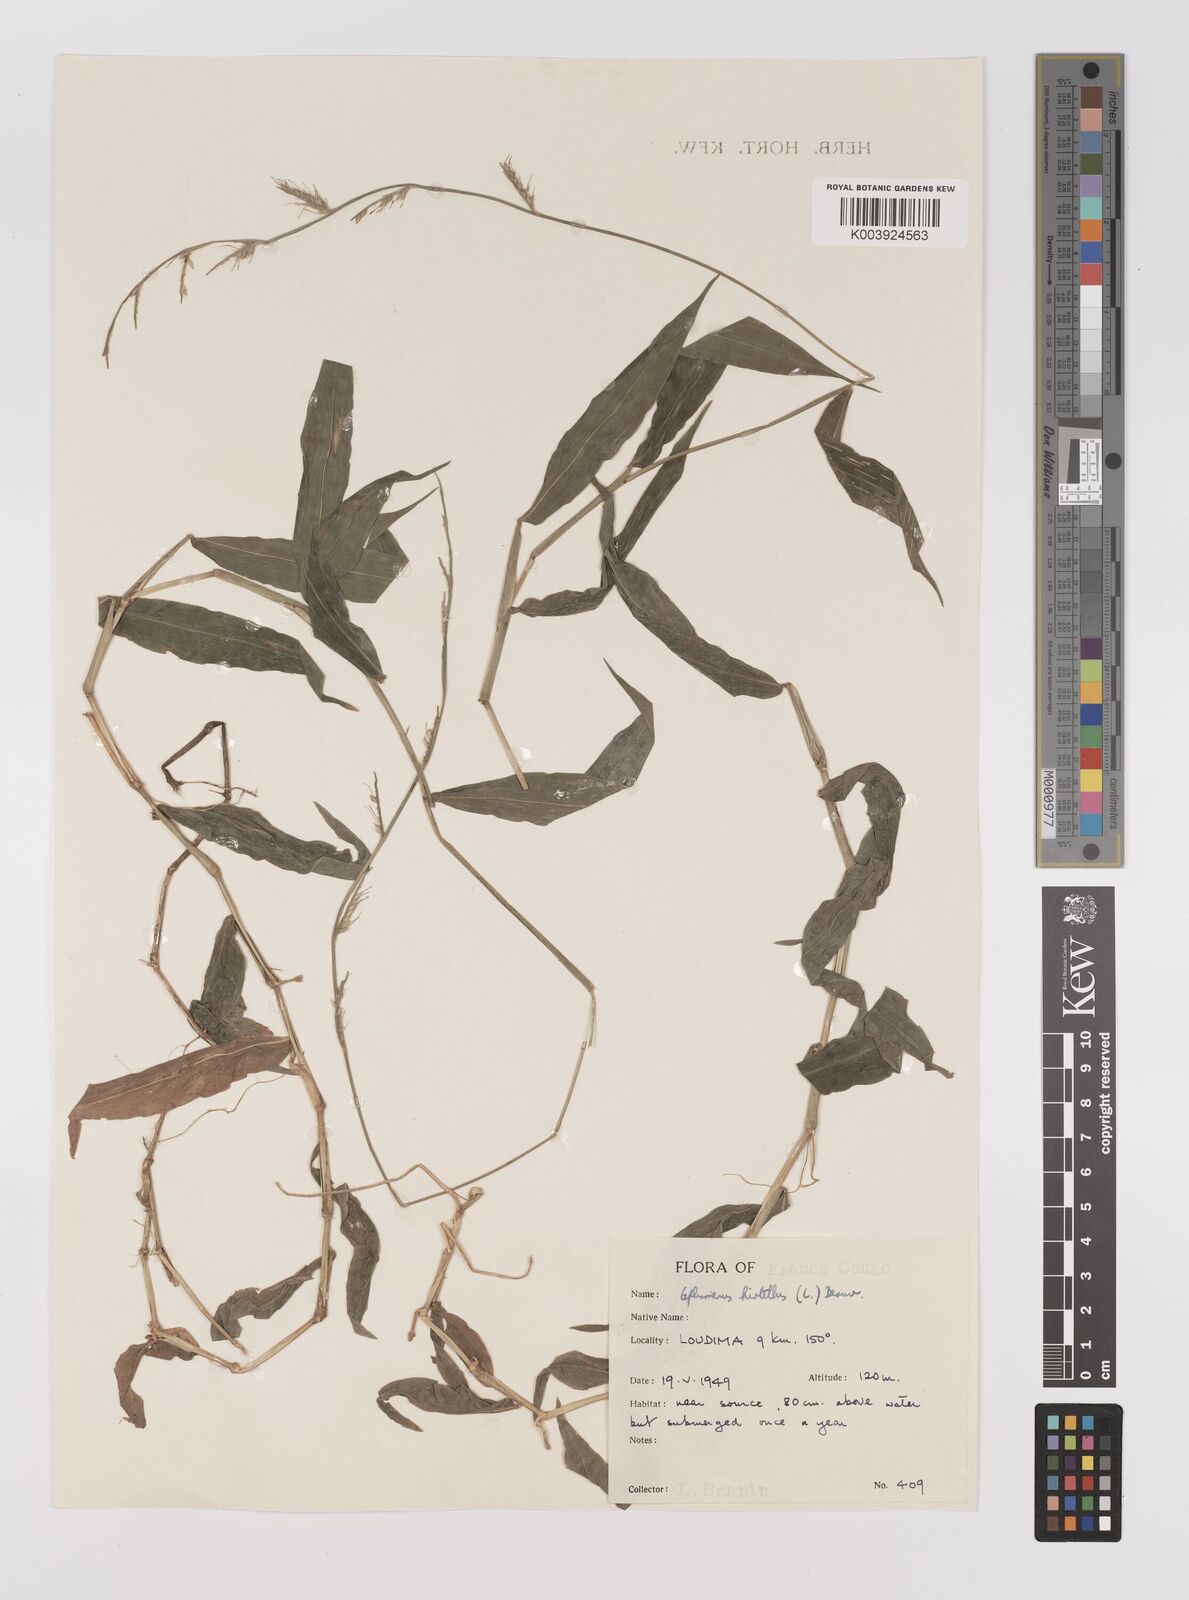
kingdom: Plantae
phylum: Tracheophyta
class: Liliopsida
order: Poales
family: Poaceae
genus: Oplismenus
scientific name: Oplismenus hirtellus
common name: Basketgrass
